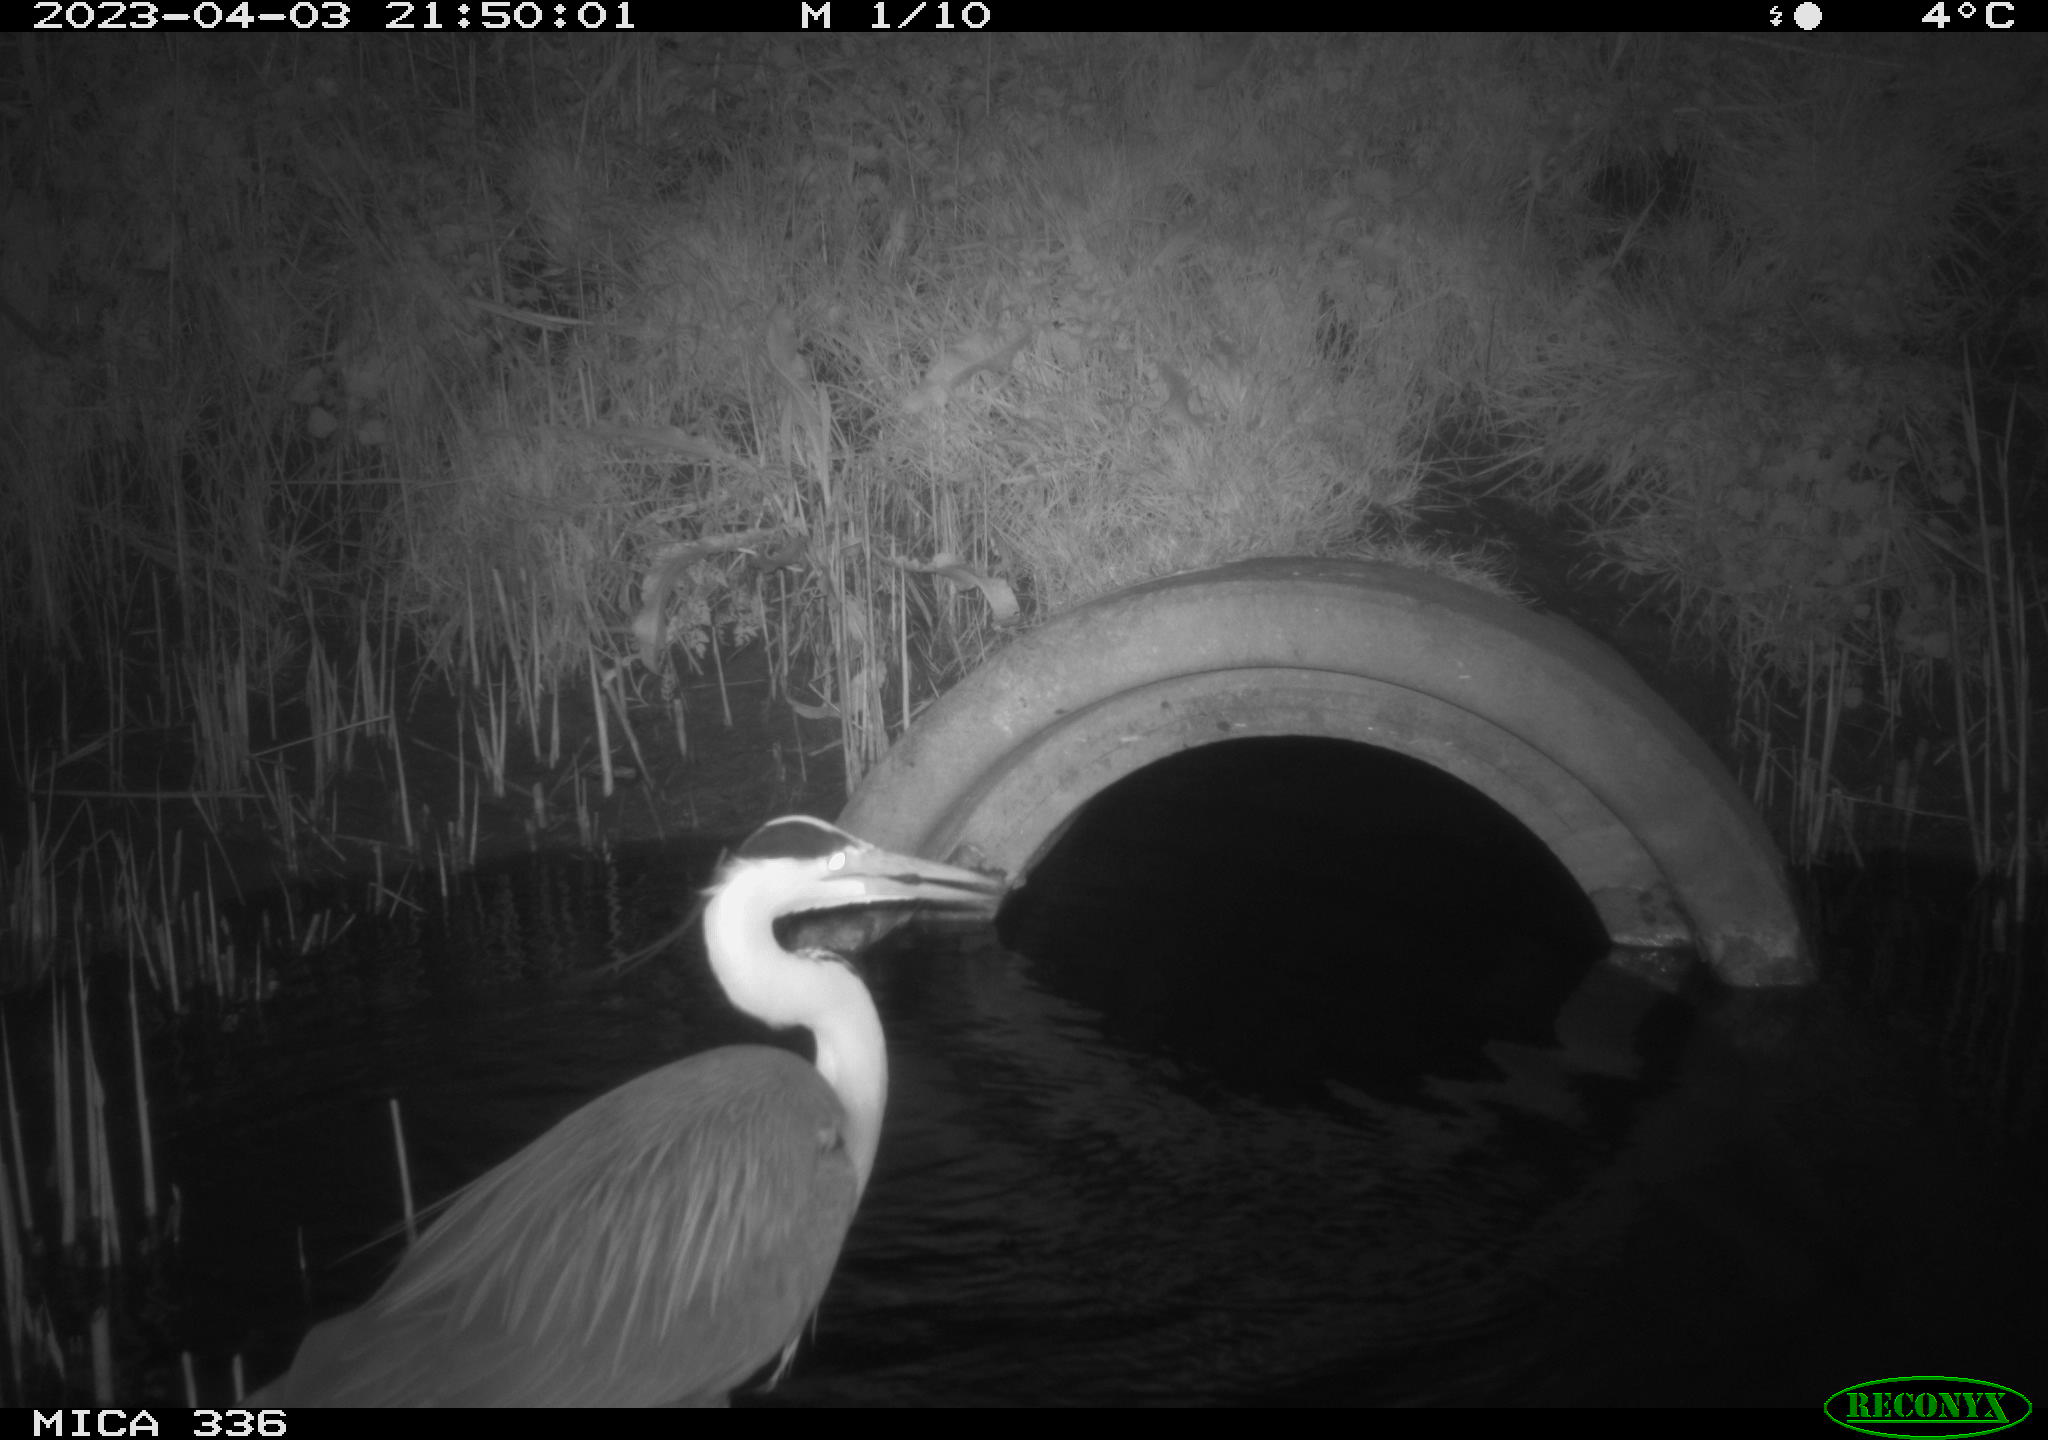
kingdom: Animalia
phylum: Chordata
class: Aves
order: Pelecaniformes
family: Ardeidae
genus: Ardea
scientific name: Ardea
